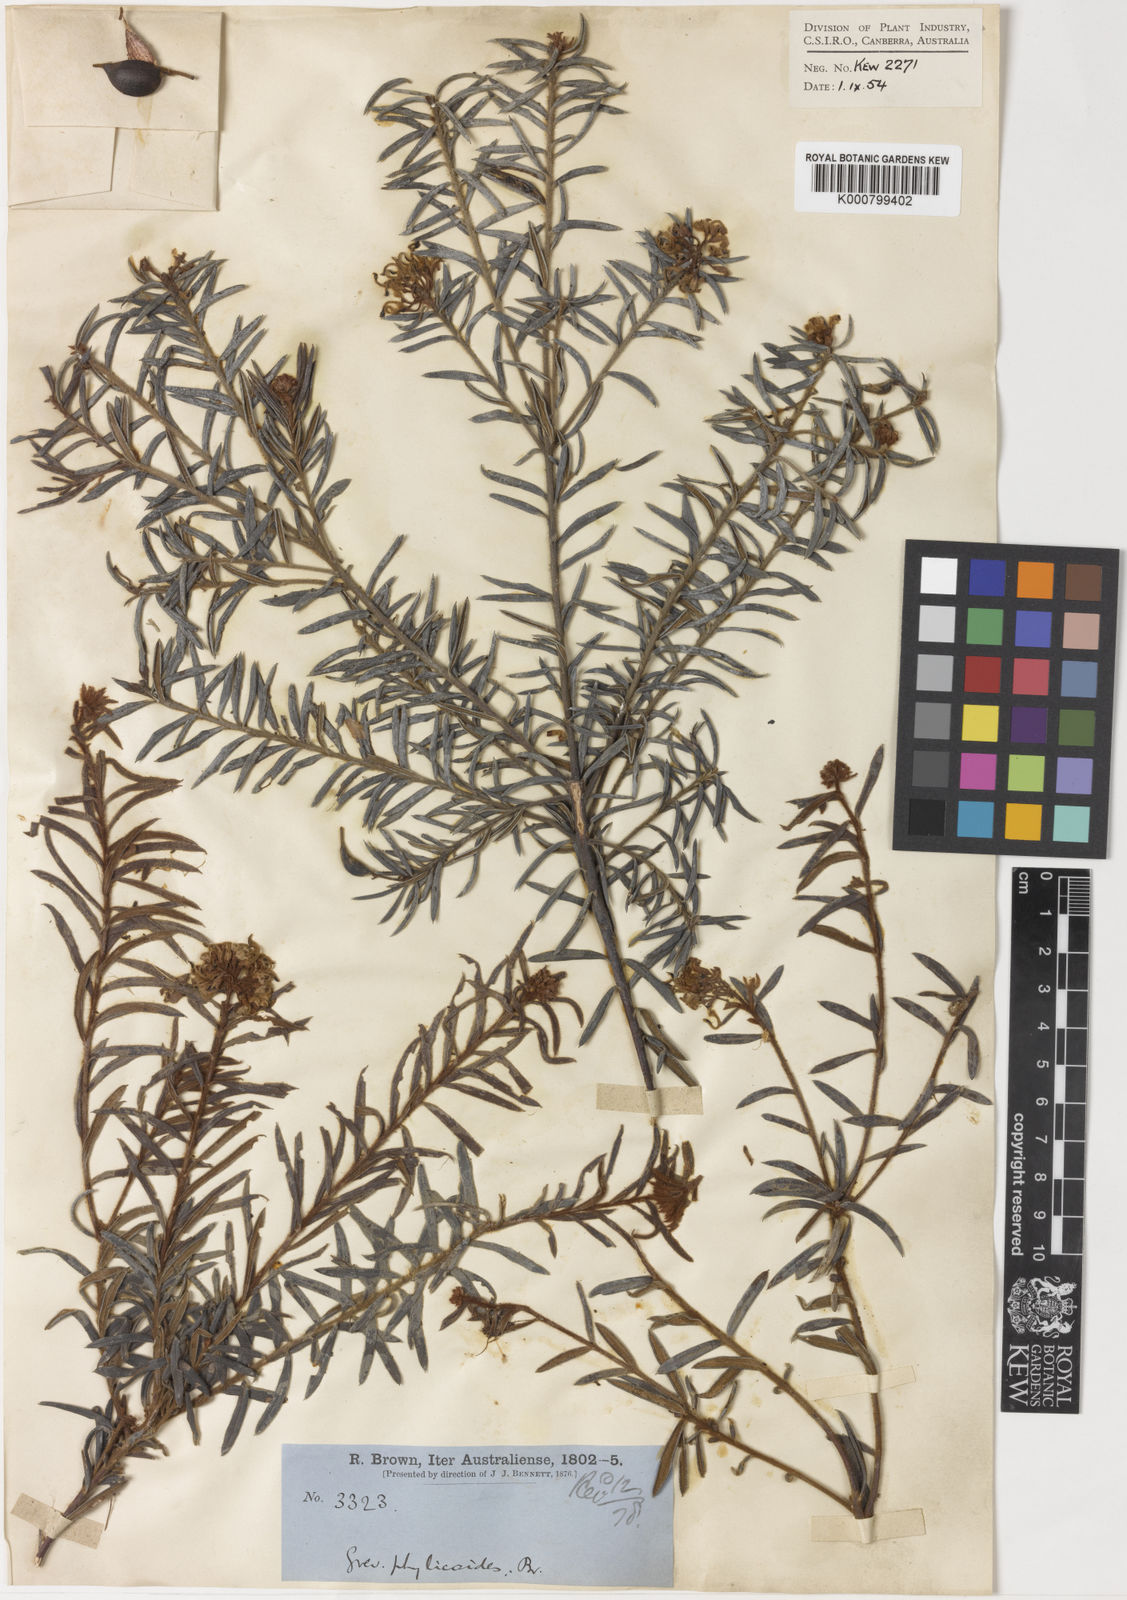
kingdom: Plantae
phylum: Tracheophyta
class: Magnoliopsida
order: Proteales
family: Proteaceae
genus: Grevillea
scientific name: Grevillea phylicoides
